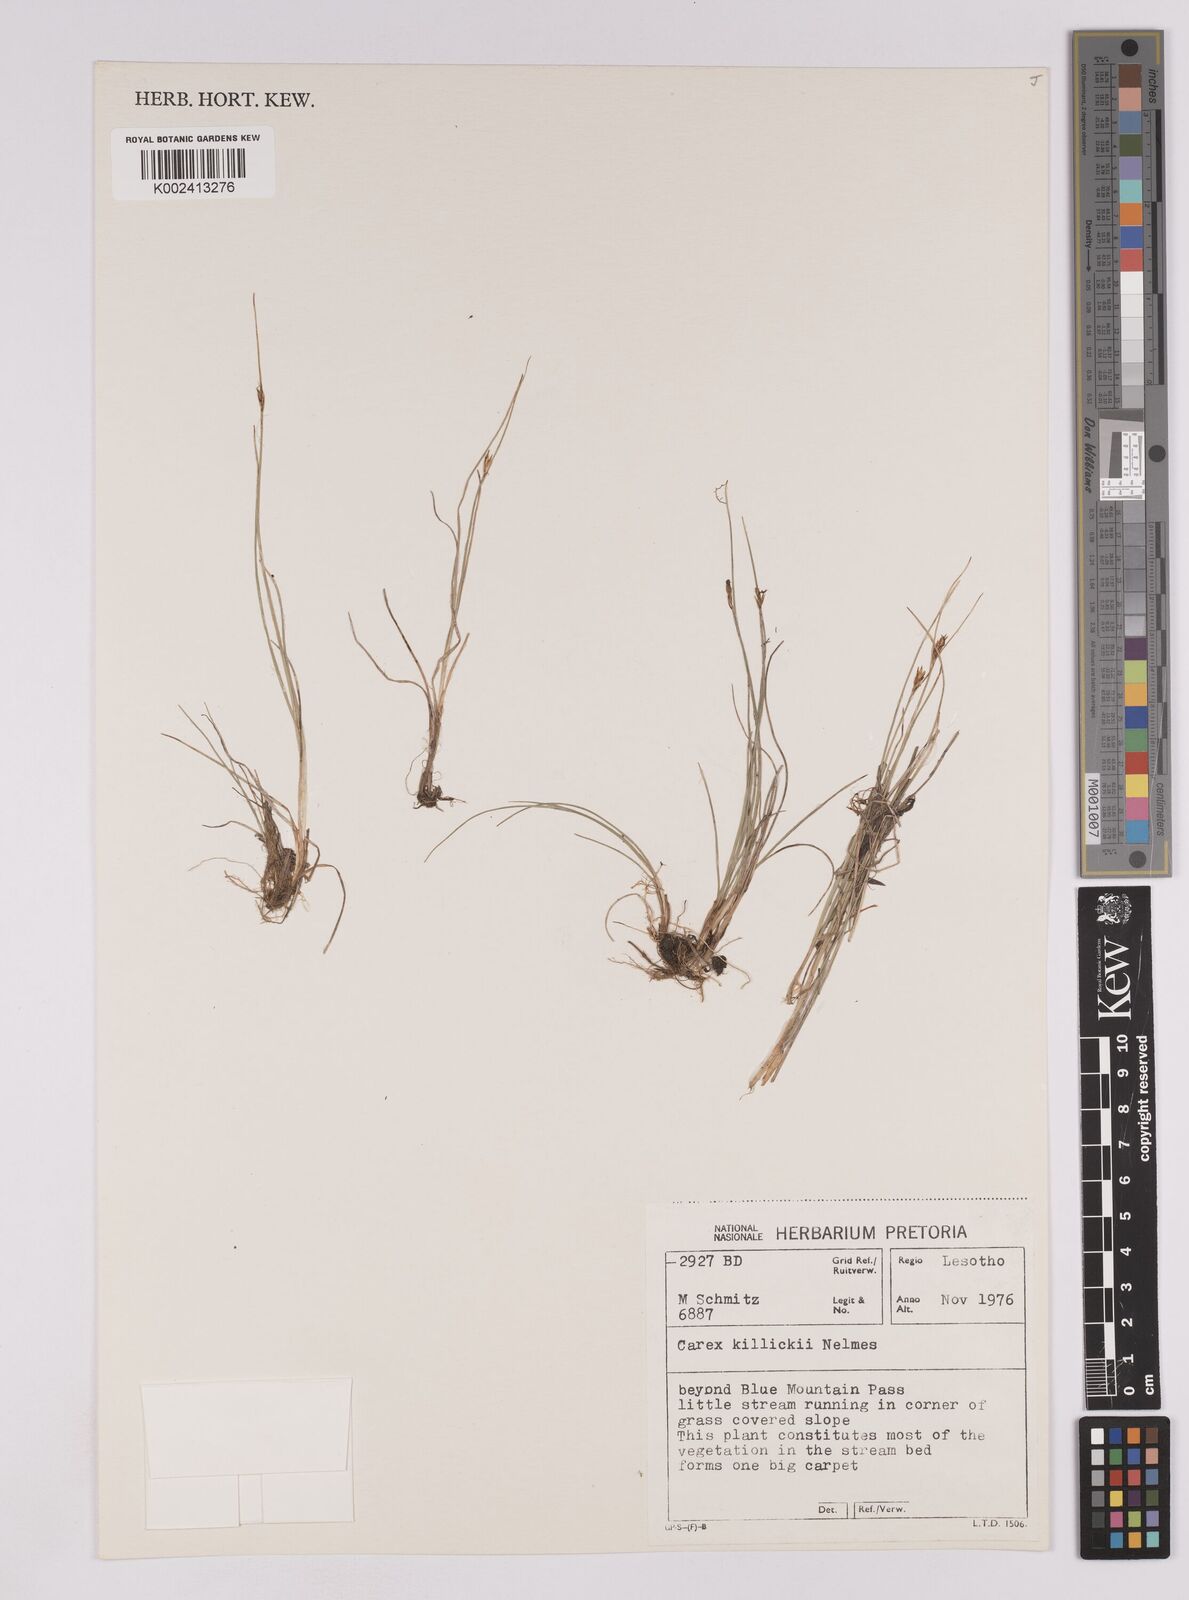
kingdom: Plantae
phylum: Tracheophyta
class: Liliopsida
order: Poales
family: Cyperaceae
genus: Carex
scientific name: Carex
